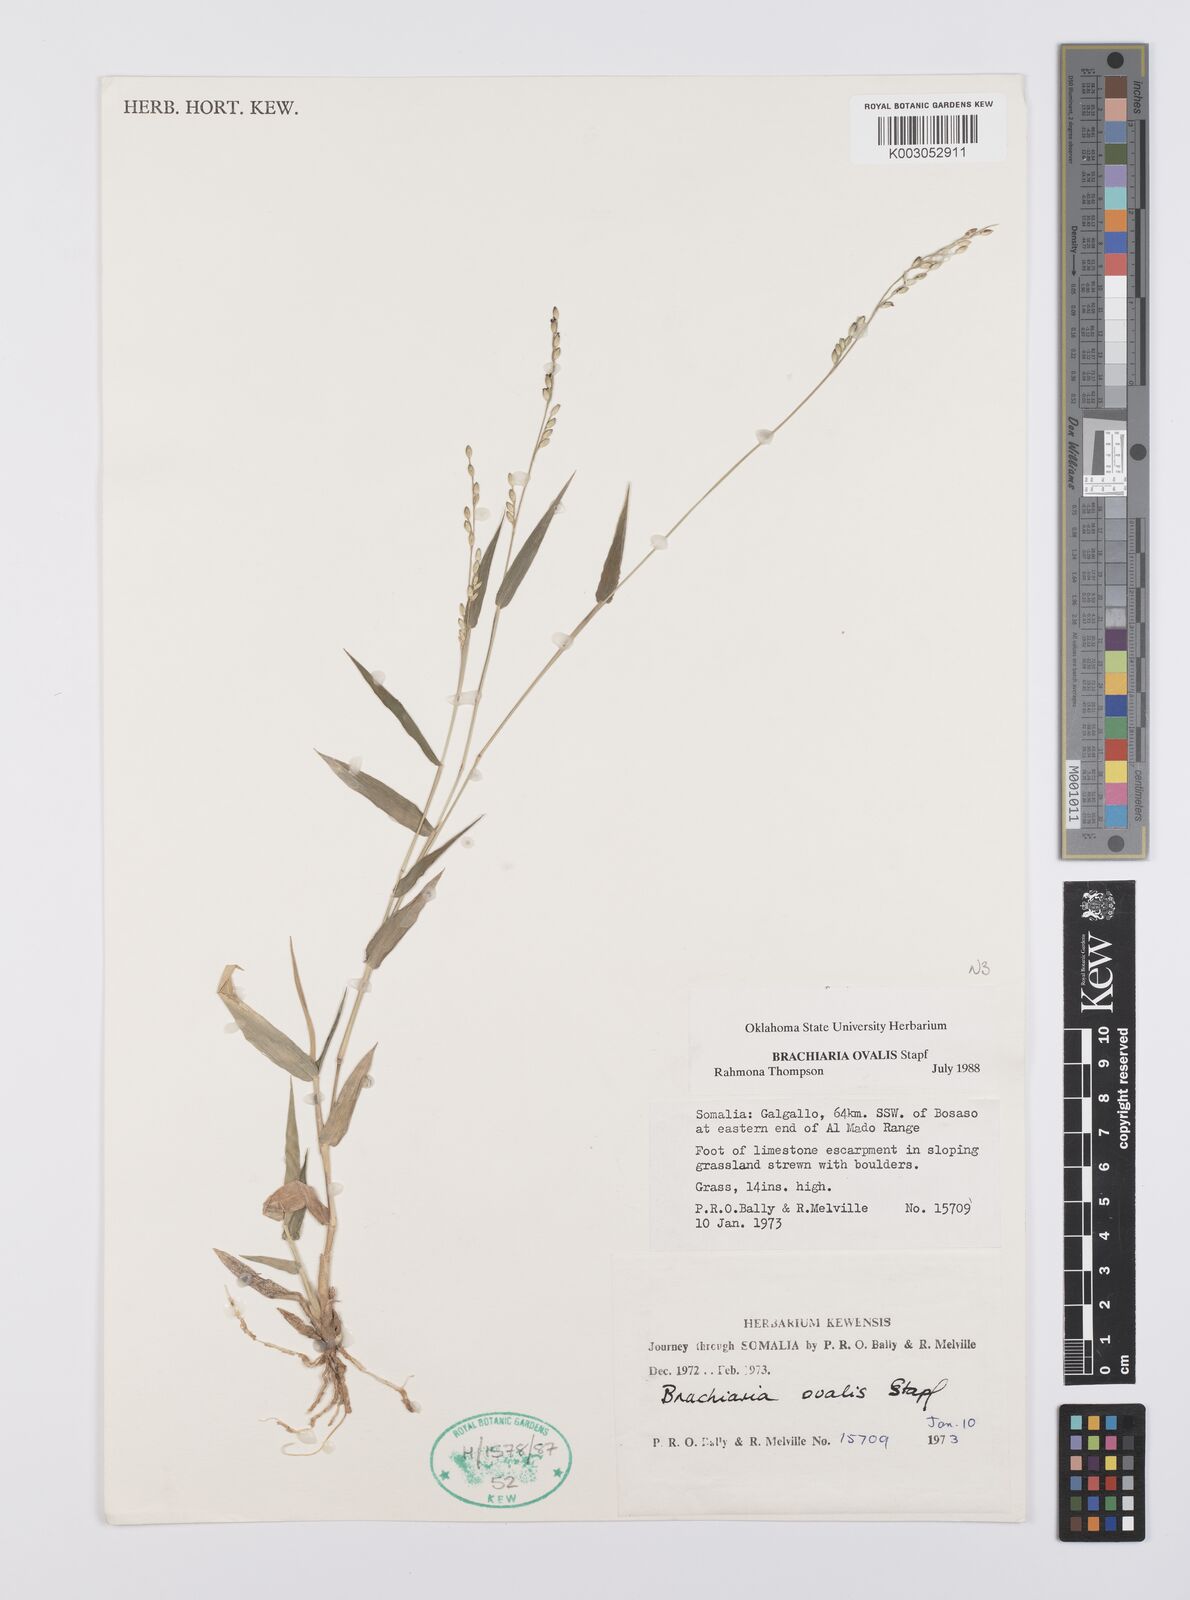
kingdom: Plantae
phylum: Tracheophyta
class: Liliopsida
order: Poales
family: Poaceae
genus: Urochloa
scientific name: Urochloa ovalis
